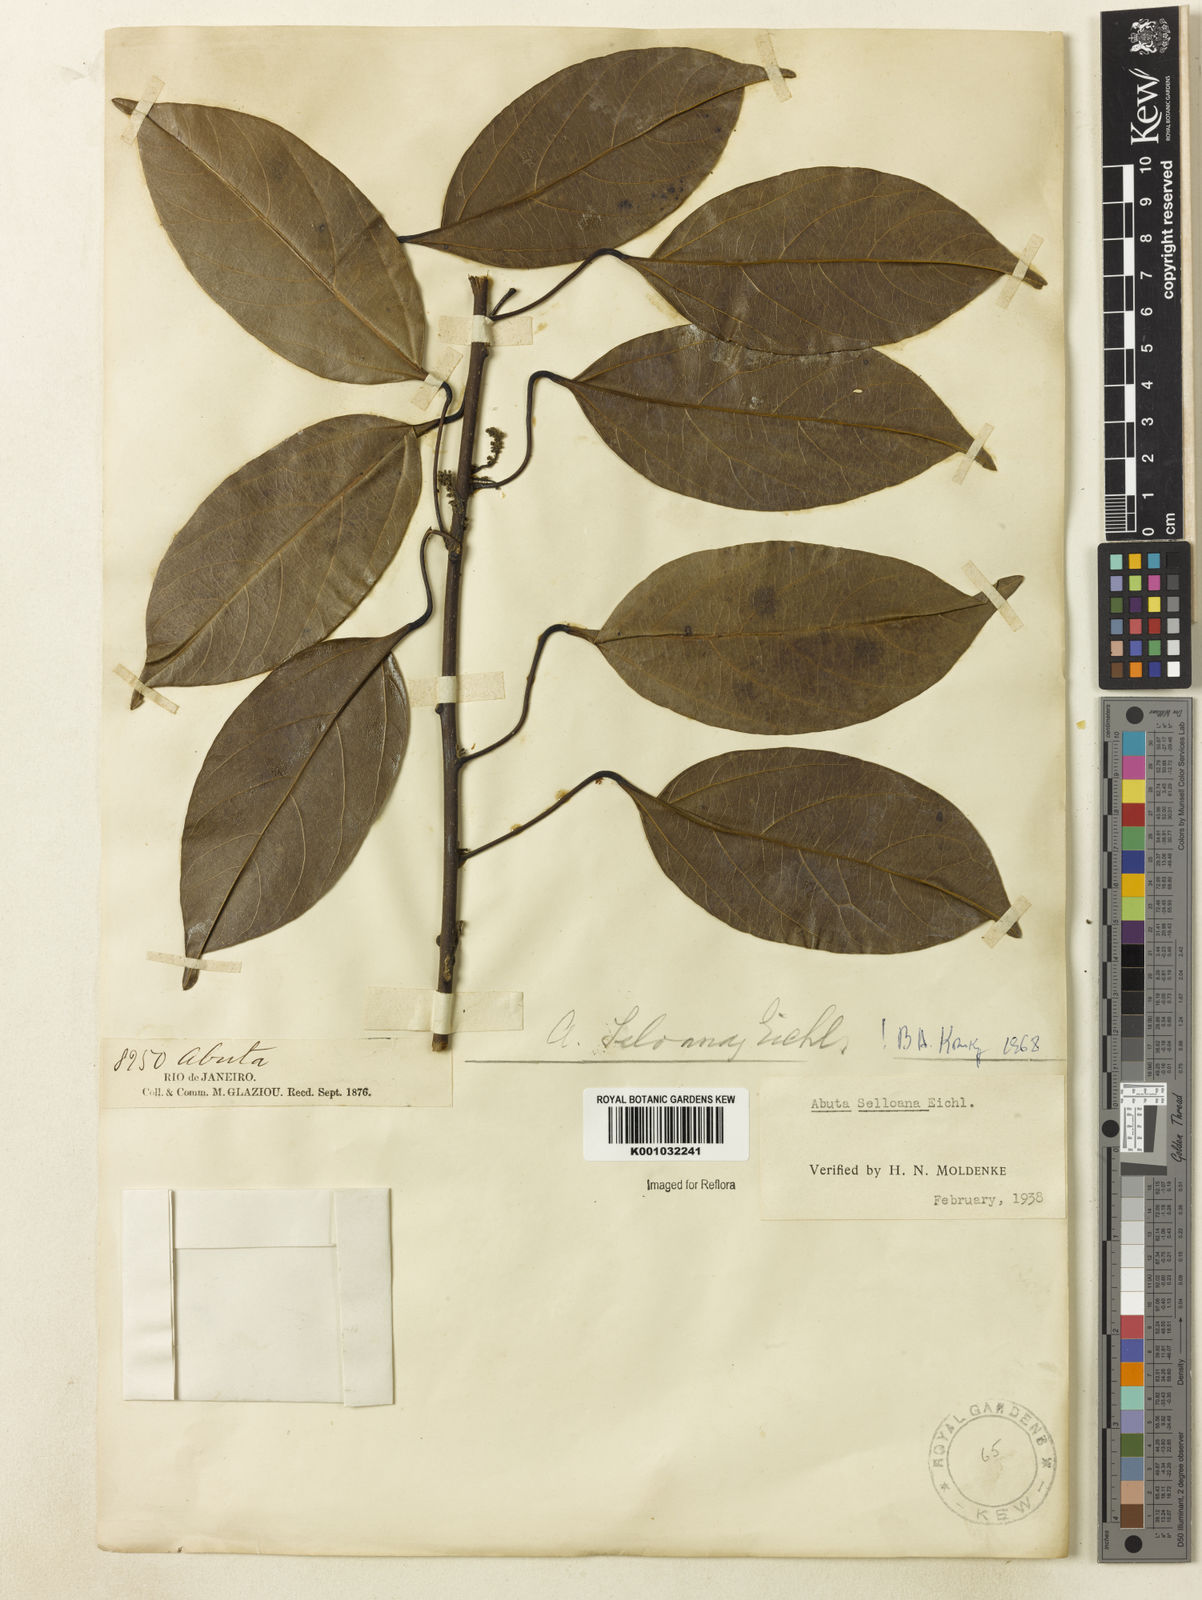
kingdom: Plantae
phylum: Tracheophyta
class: Magnoliopsida
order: Ranunculales
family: Menispermaceae
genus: Abuta
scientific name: Abuta selloana
